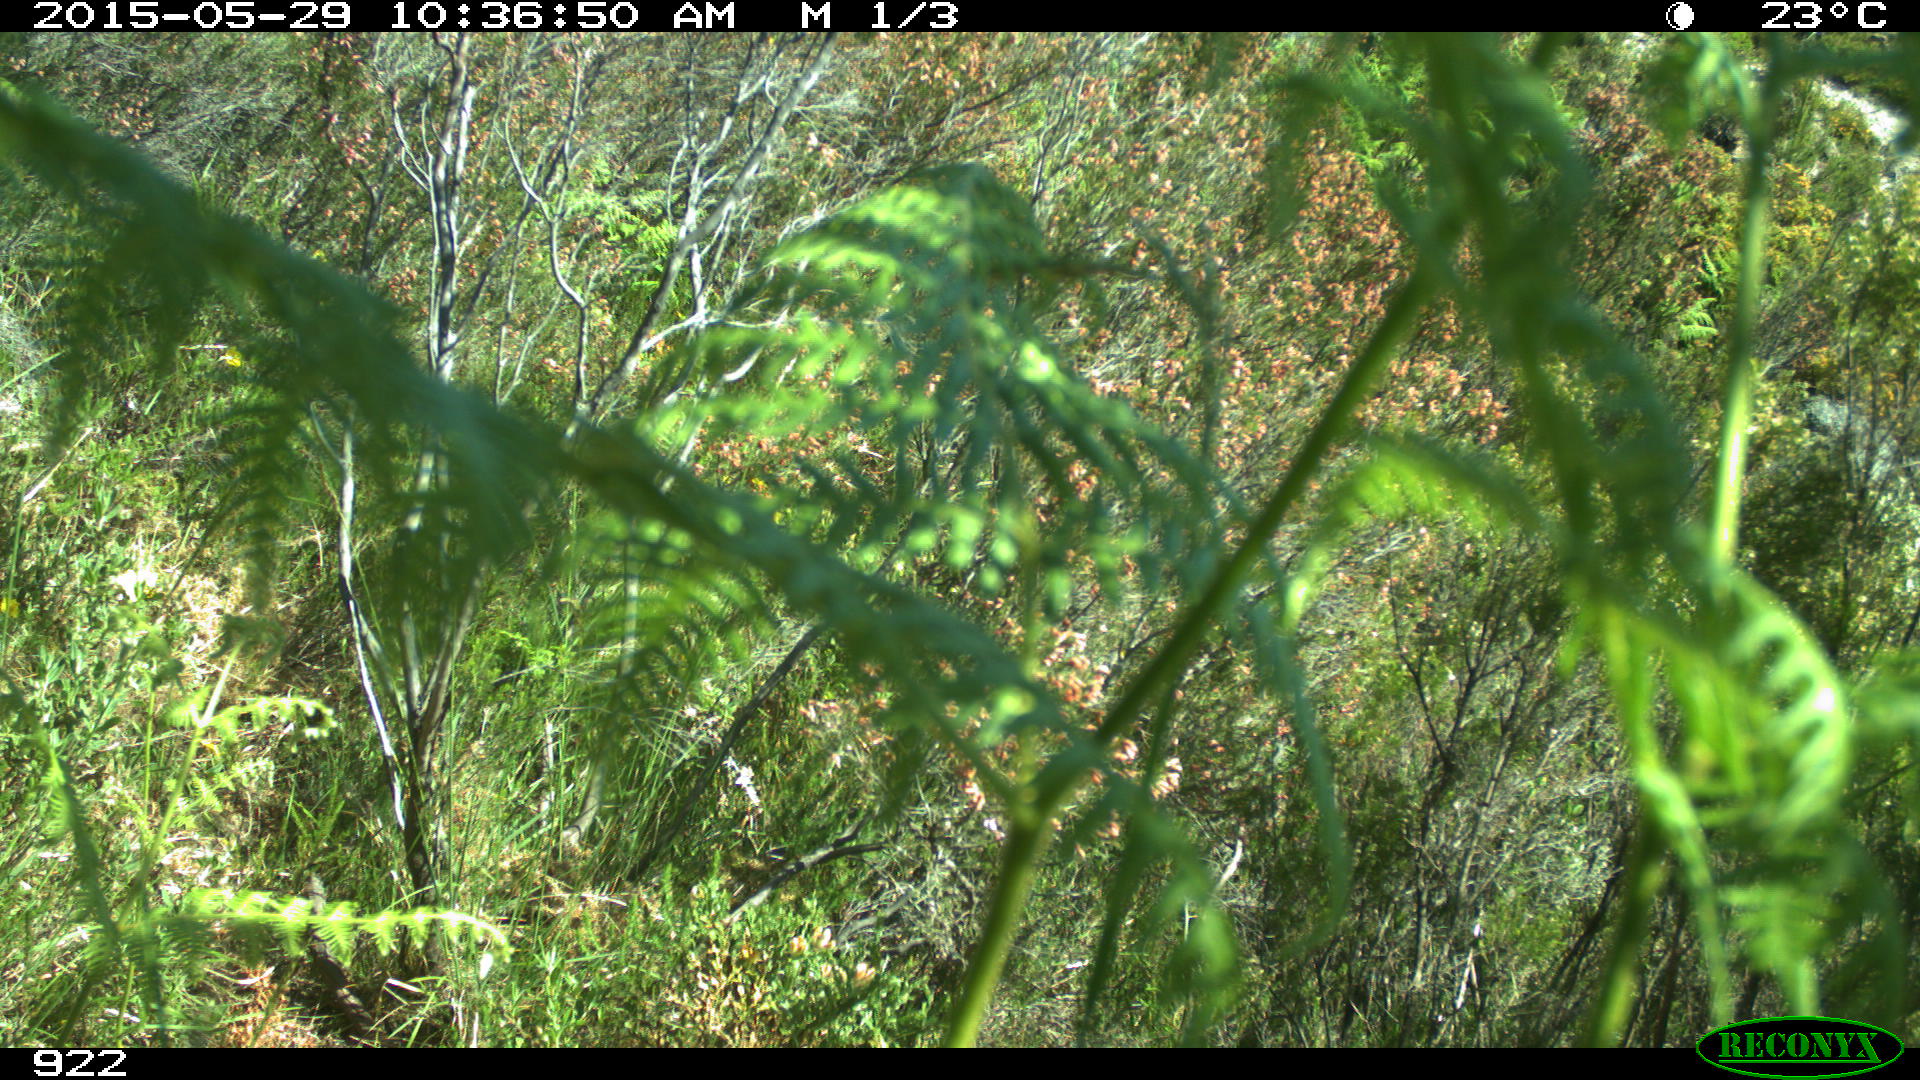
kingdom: Animalia
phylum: Chordata
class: Mammalia
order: Artiodactyla
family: Cervidae
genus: Capreolus
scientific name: Capreolus capreolus
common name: Western roe deer
